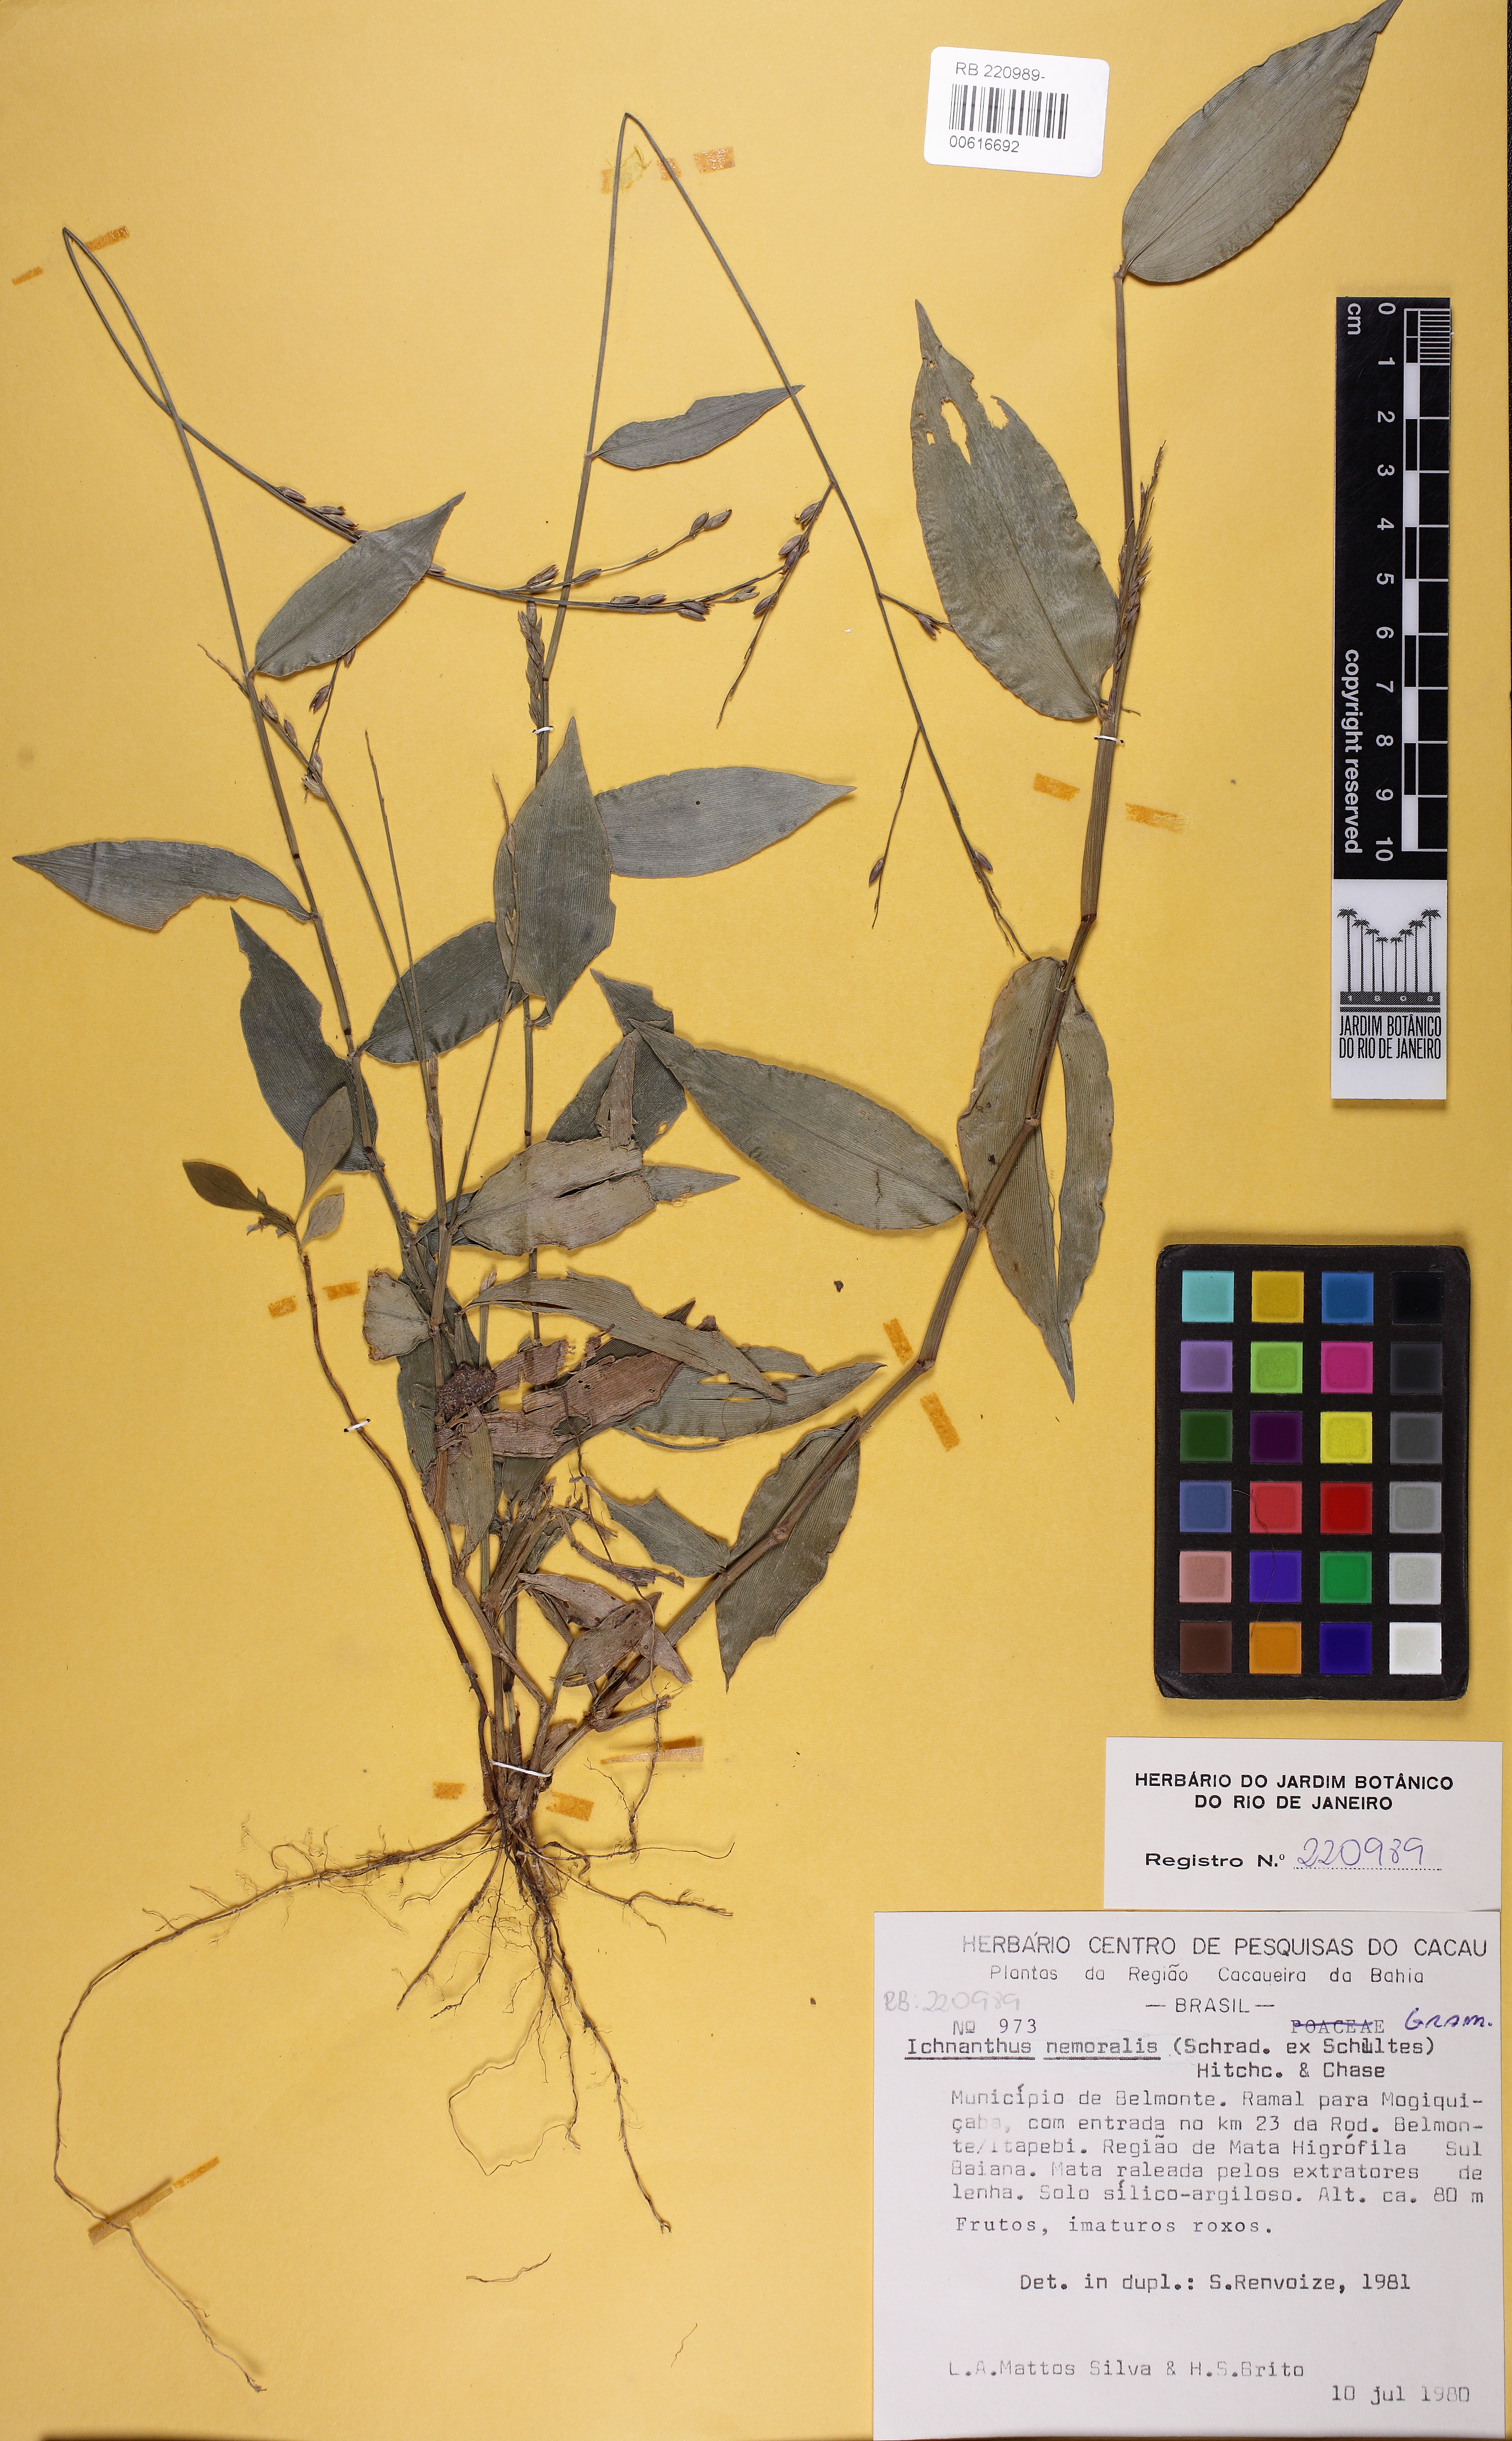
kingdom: Plantae
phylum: Tracheophyta
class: Liliopsida
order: Poales
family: Poaceae
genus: Ichnanthus
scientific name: Ichnanthus nemoralis
